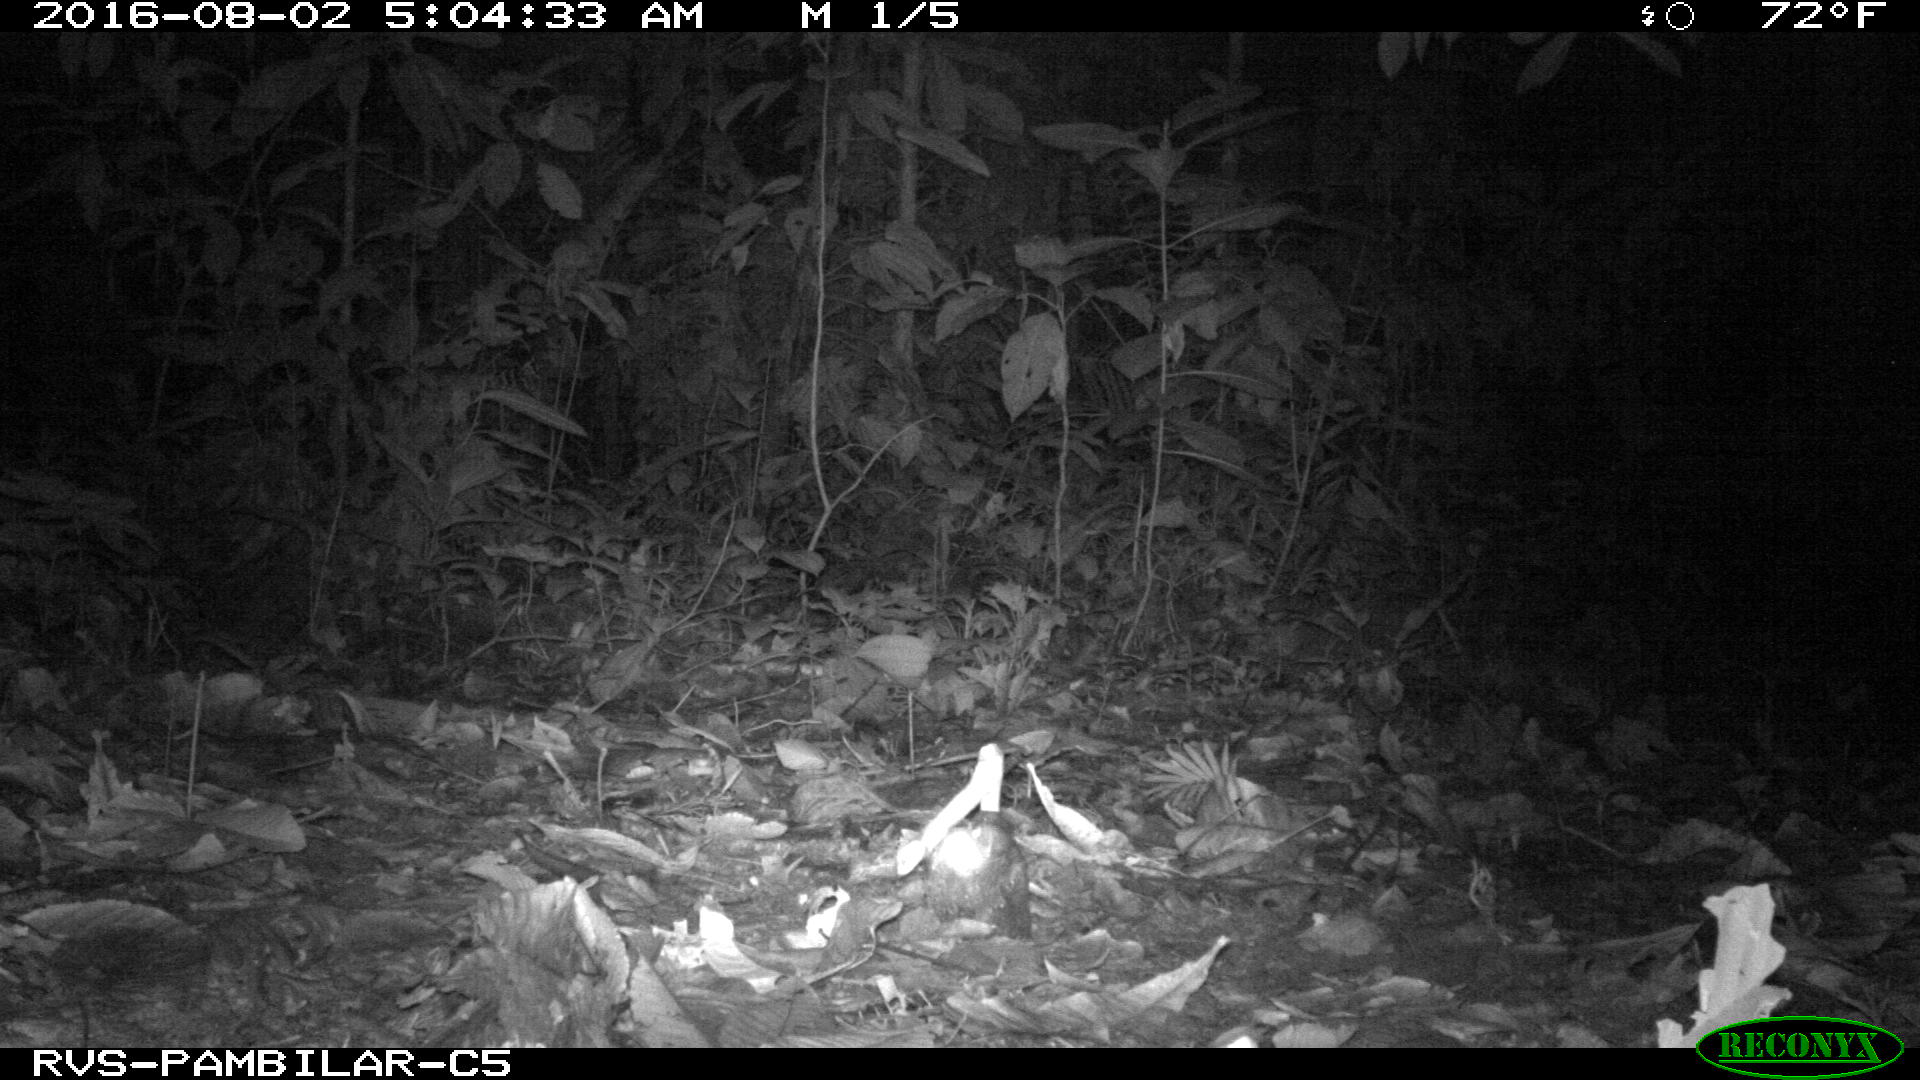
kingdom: Animalia
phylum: Chordata
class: Mammalia
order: Cingulata
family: Dasypodidae
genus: Dasypus
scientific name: Dasypus novemcinctus
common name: Nine-banded armadillo
